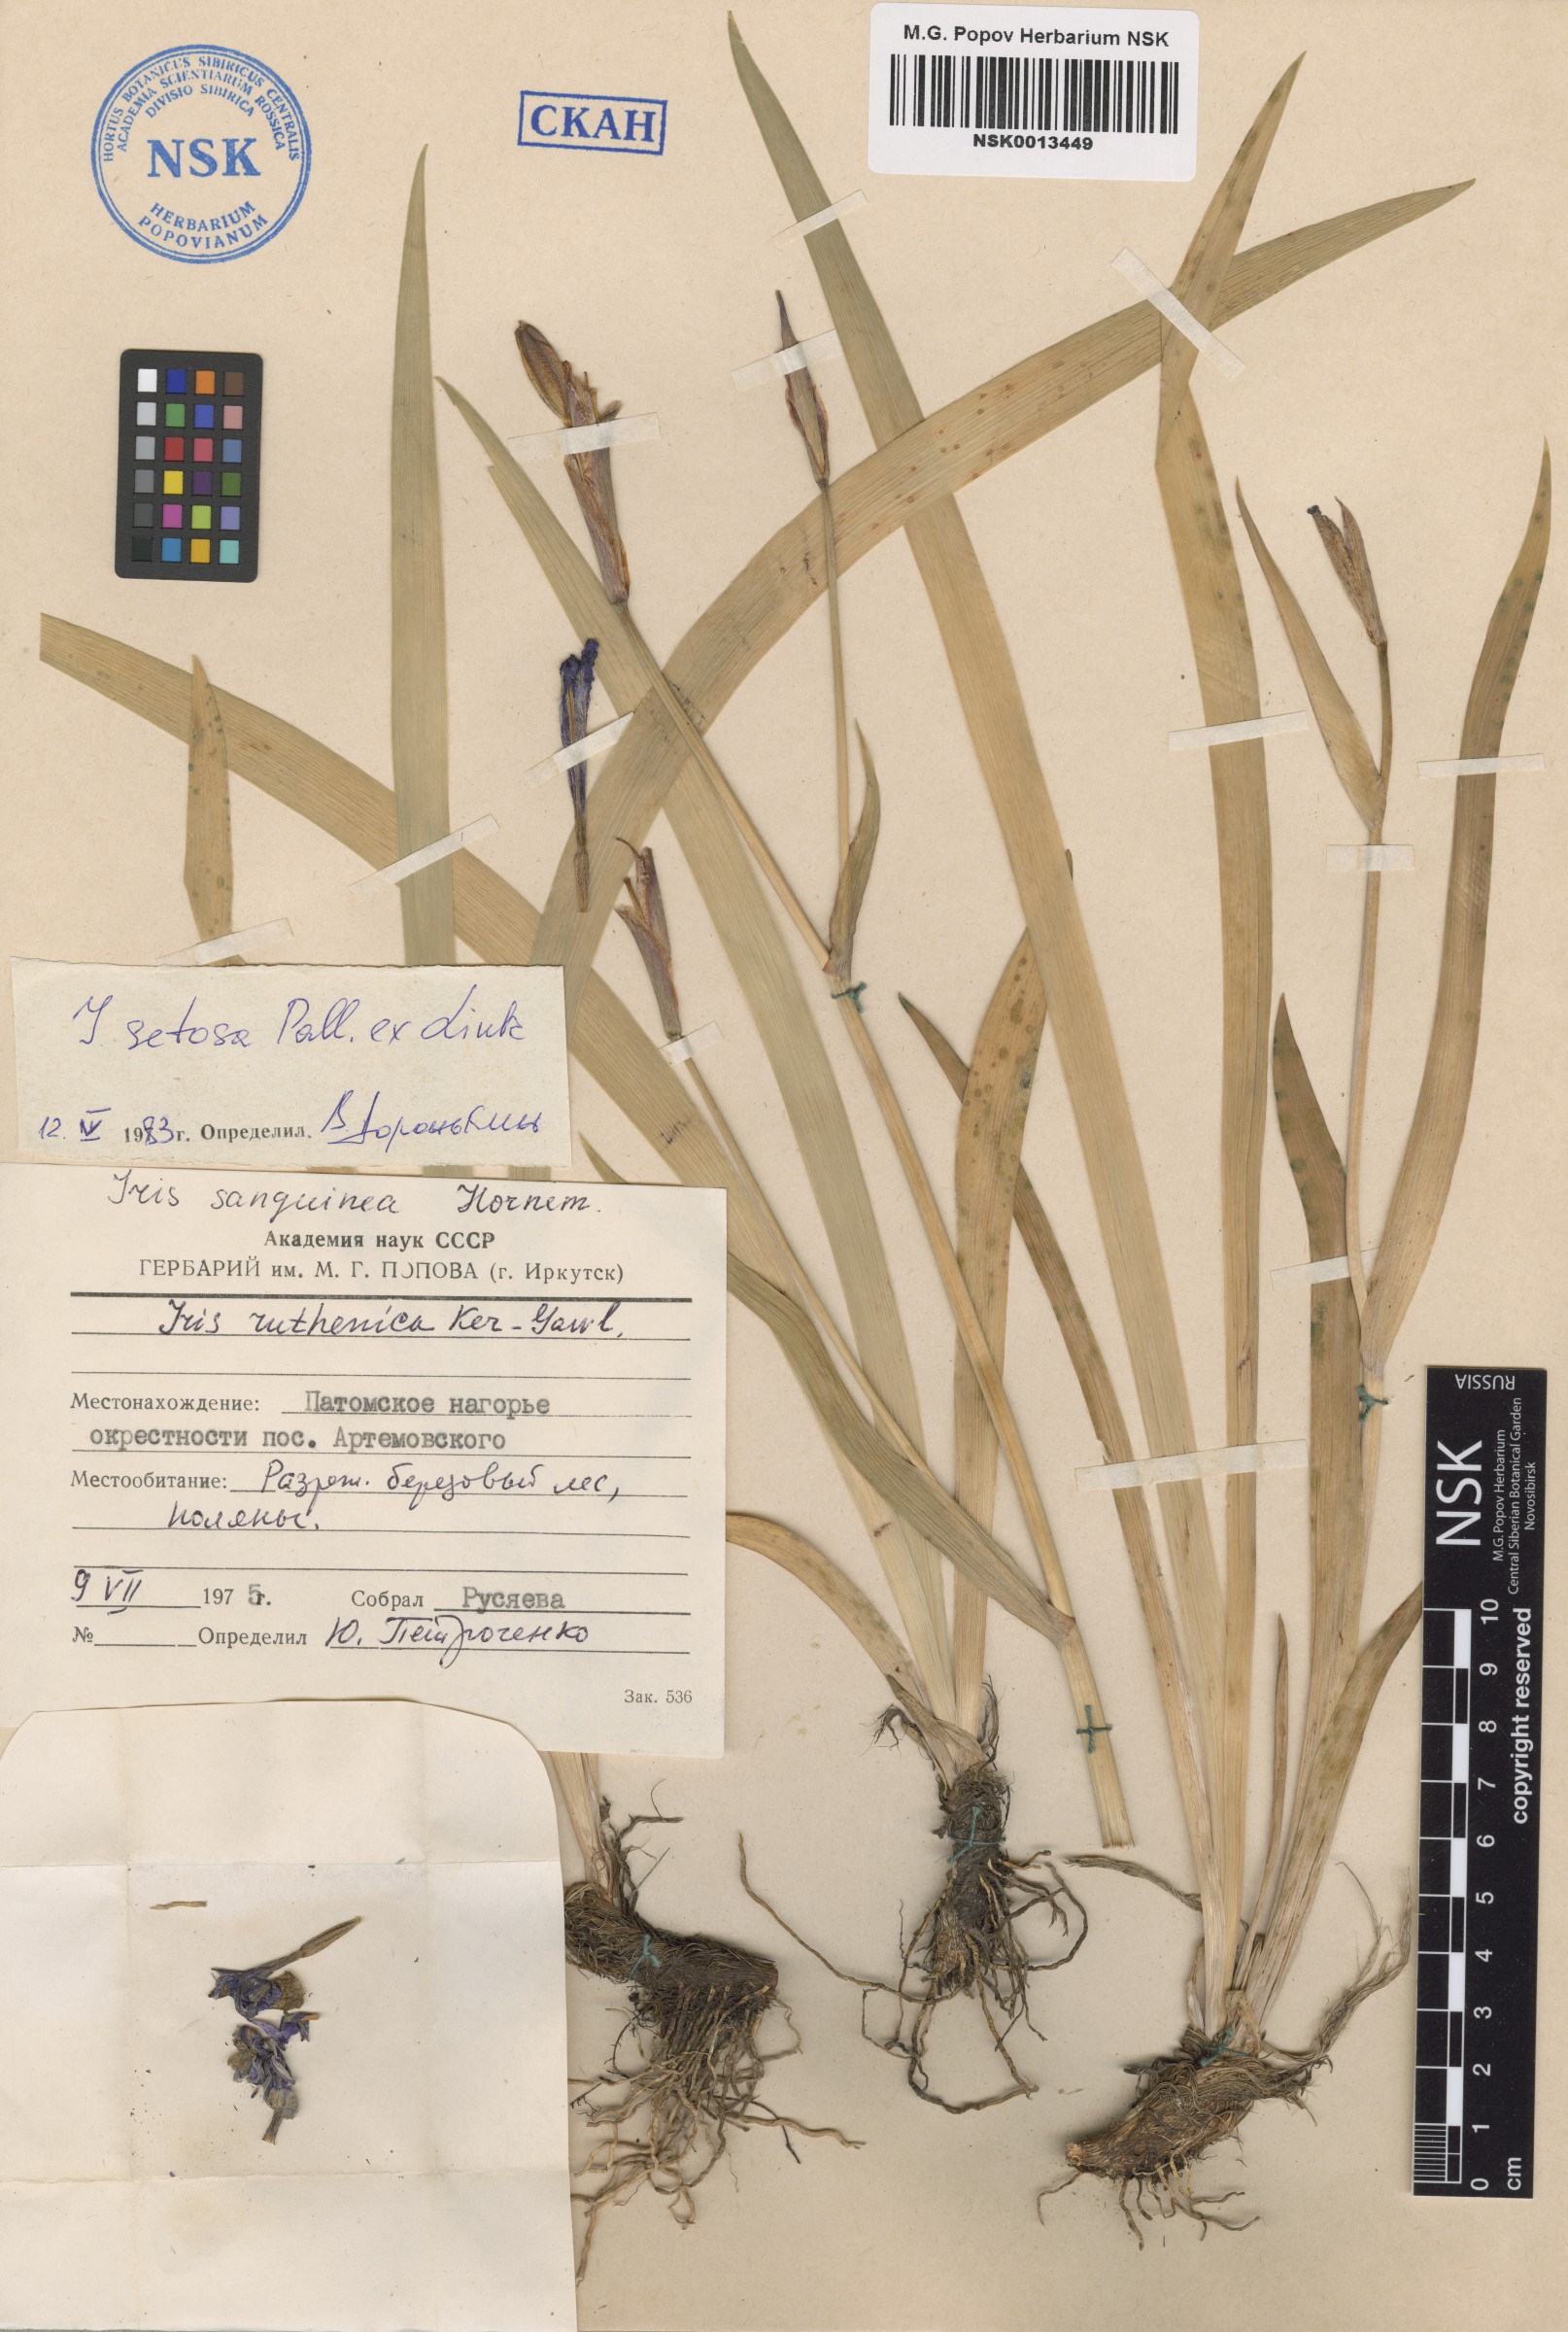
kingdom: Plantae
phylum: Tracheophyta
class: Liliopsida
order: Asparagales
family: Iridaceae
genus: Iris
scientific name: Iris setosa
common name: Arctic blue flag
